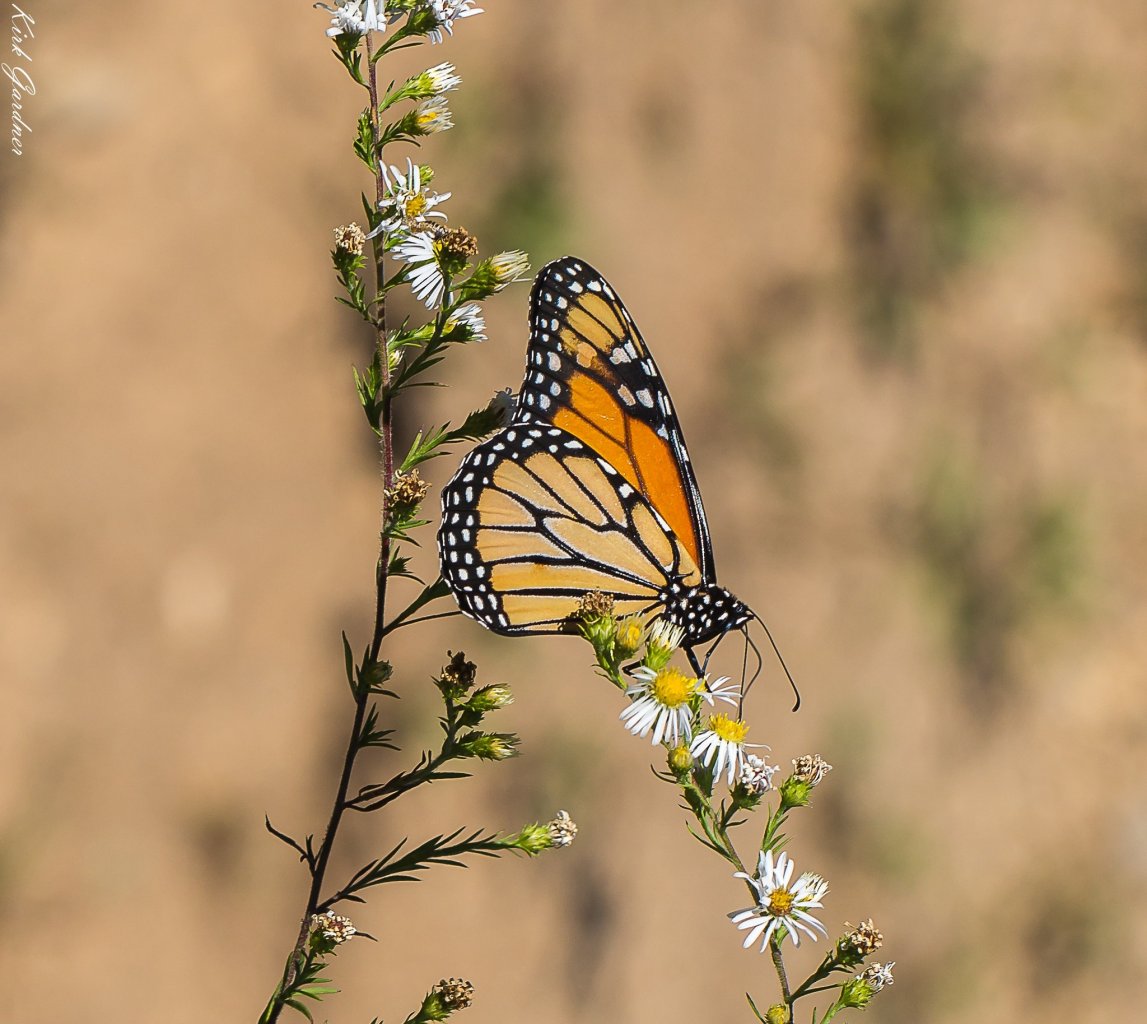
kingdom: Animalia
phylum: Arthropoda
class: Insecta
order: Lepidoptera
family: Nymphalidae
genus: Danaus
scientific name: Danaus plexippus
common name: Monarch
